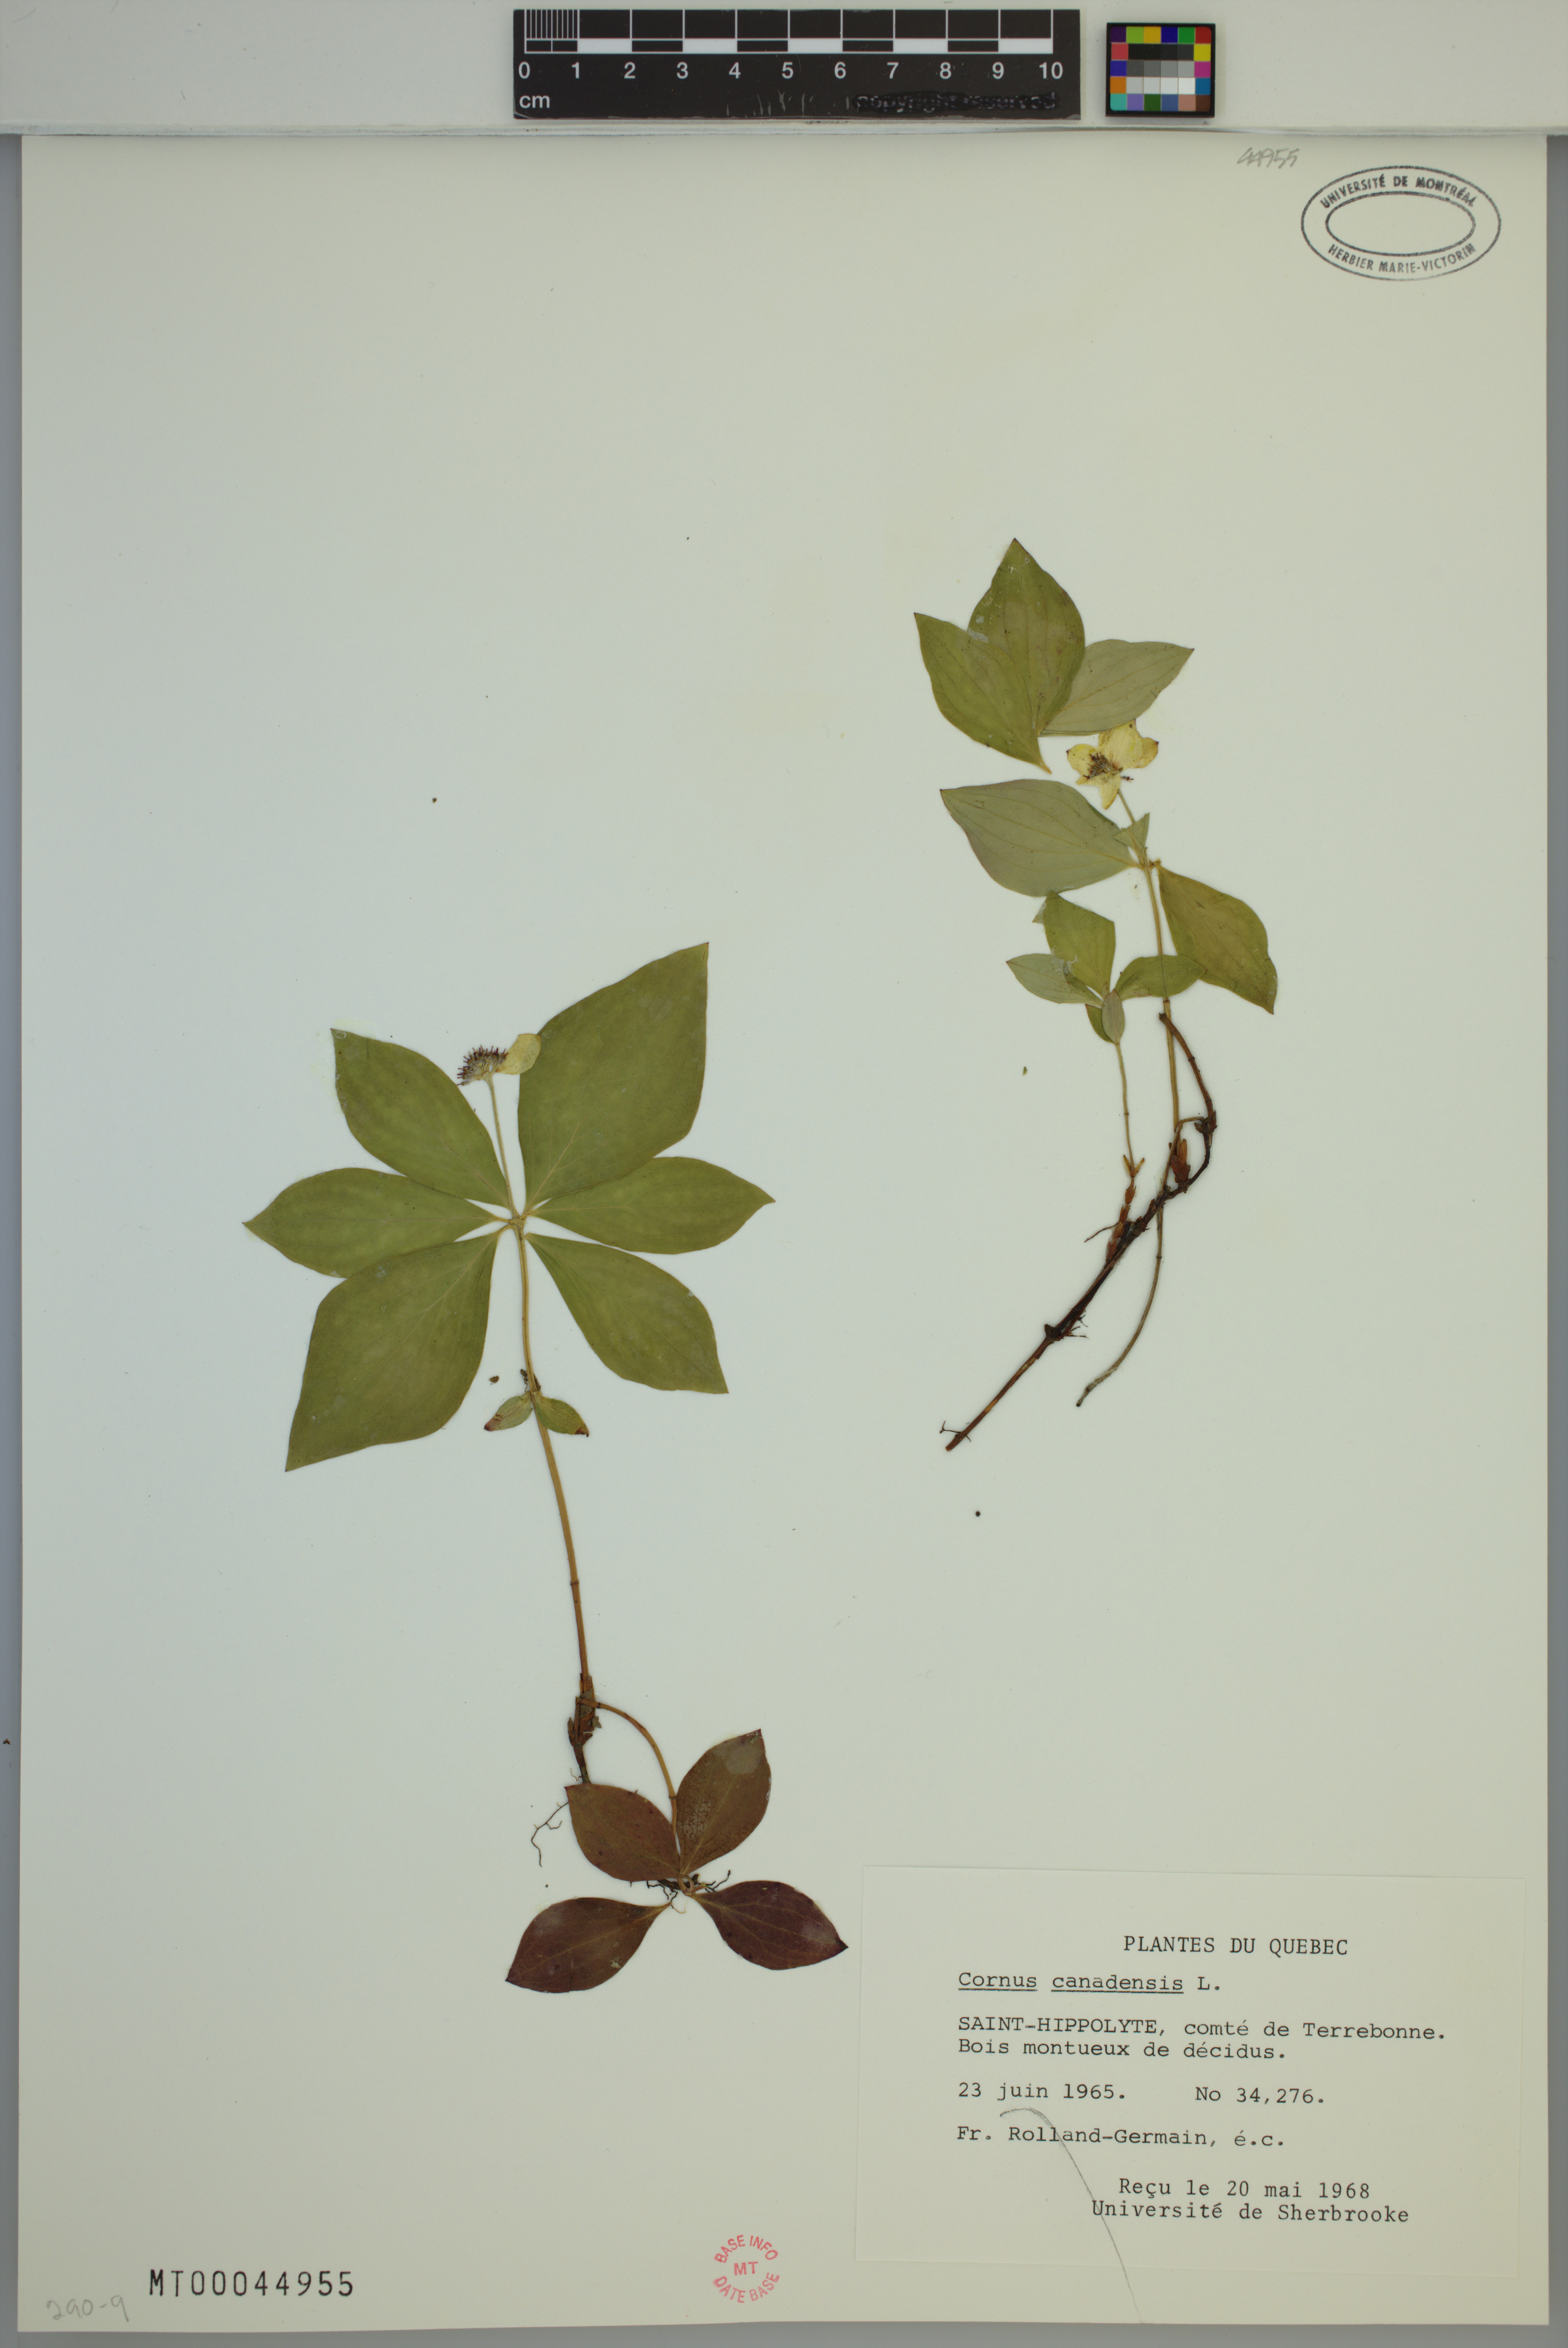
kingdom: Plantae
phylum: Tracheophyta
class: Magnoliopsida
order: Cornales
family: Cornaceae
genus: Cornus
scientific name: Cornus canadensis
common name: Creeping dogwood
